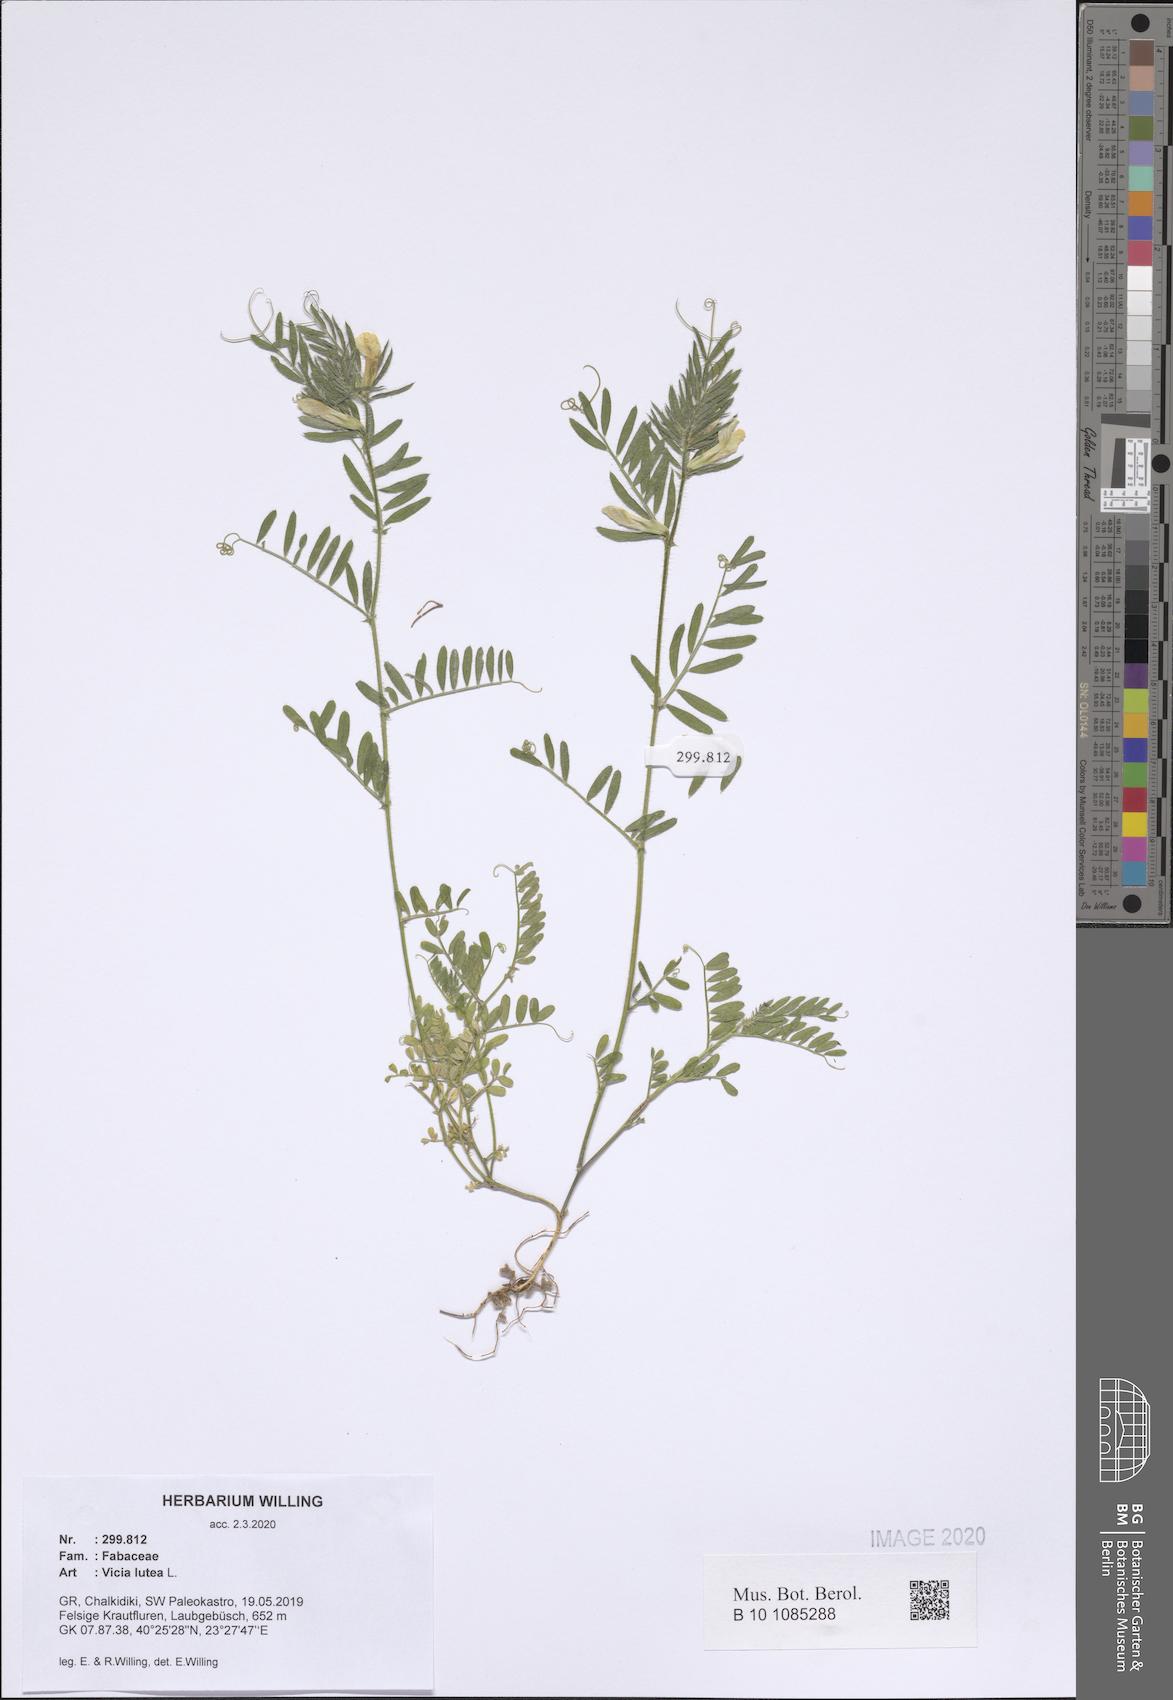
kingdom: Plantae
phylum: Tracheophyta
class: Magnoliopsida
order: Fabales
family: Fabaceae
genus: Vicia
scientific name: Vicia lutea
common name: Smooth yellow vetch
